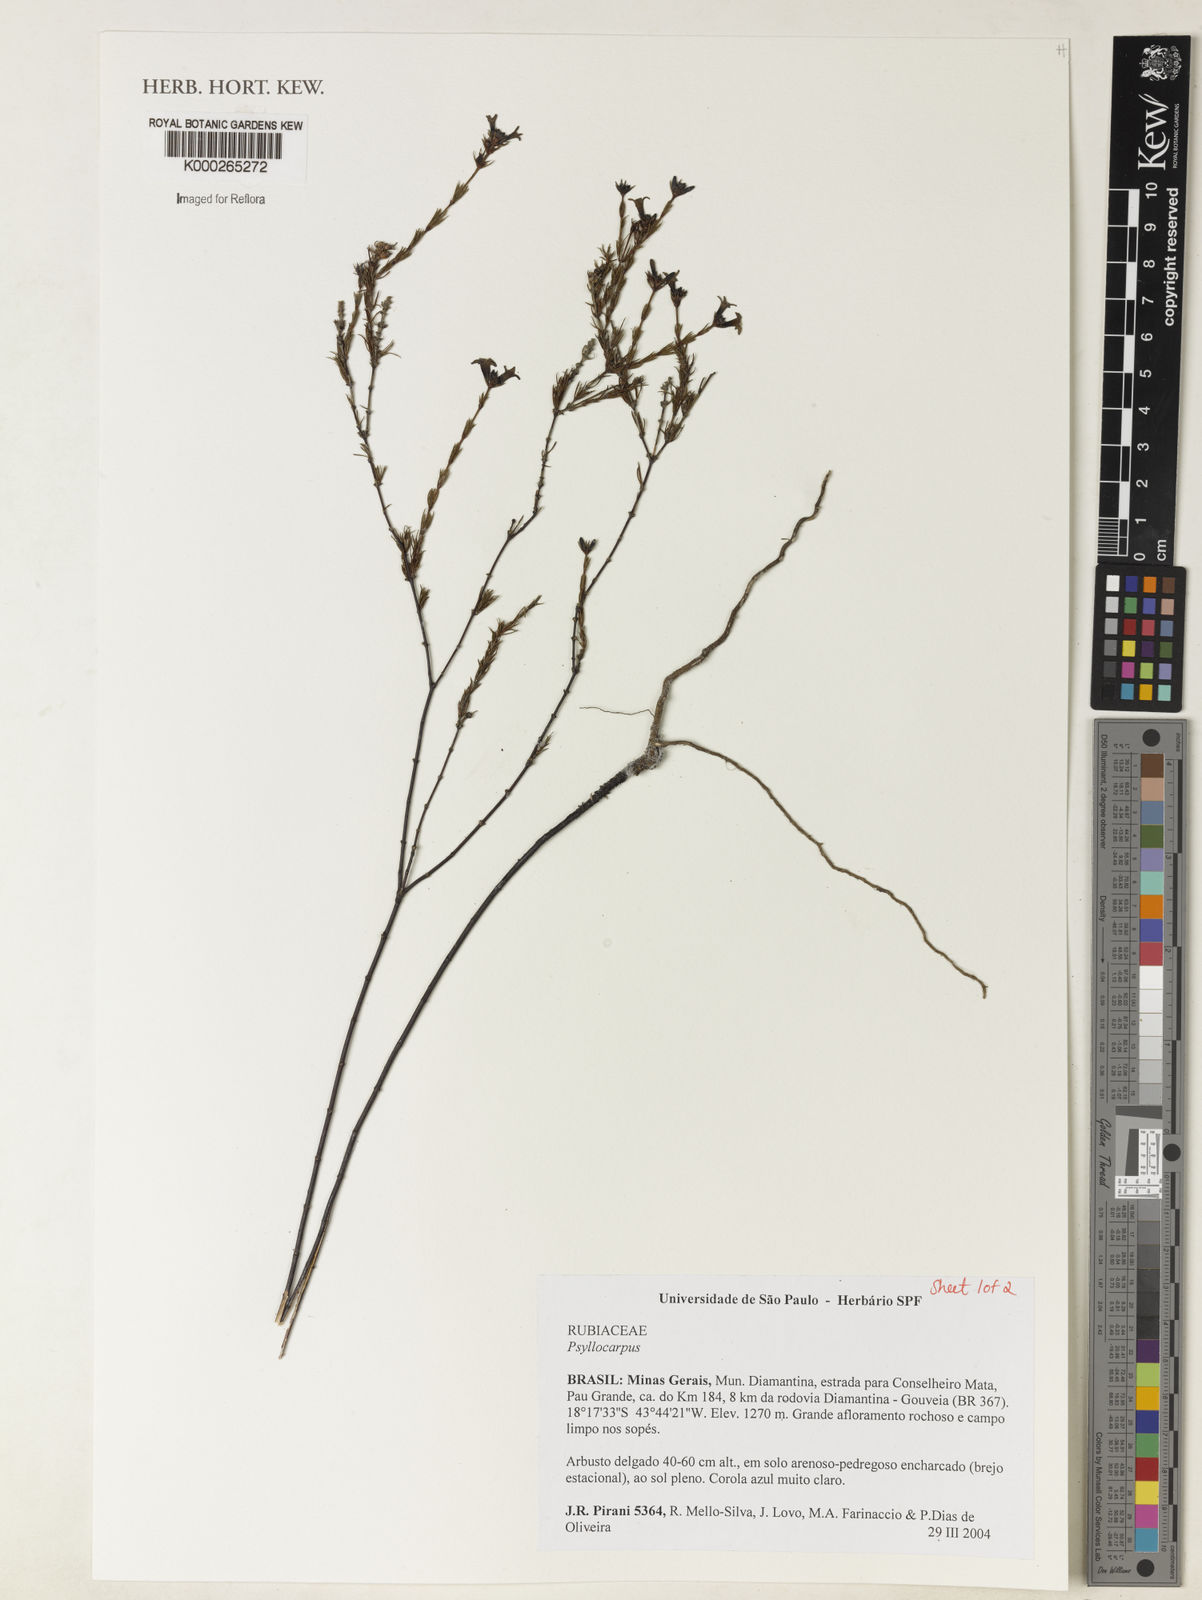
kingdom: Plantae
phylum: Tracheophyta
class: Magnoliopsida
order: Gentianales
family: Rubiaceae
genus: Psyllocarpus
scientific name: Psyllocarpus laricoides
